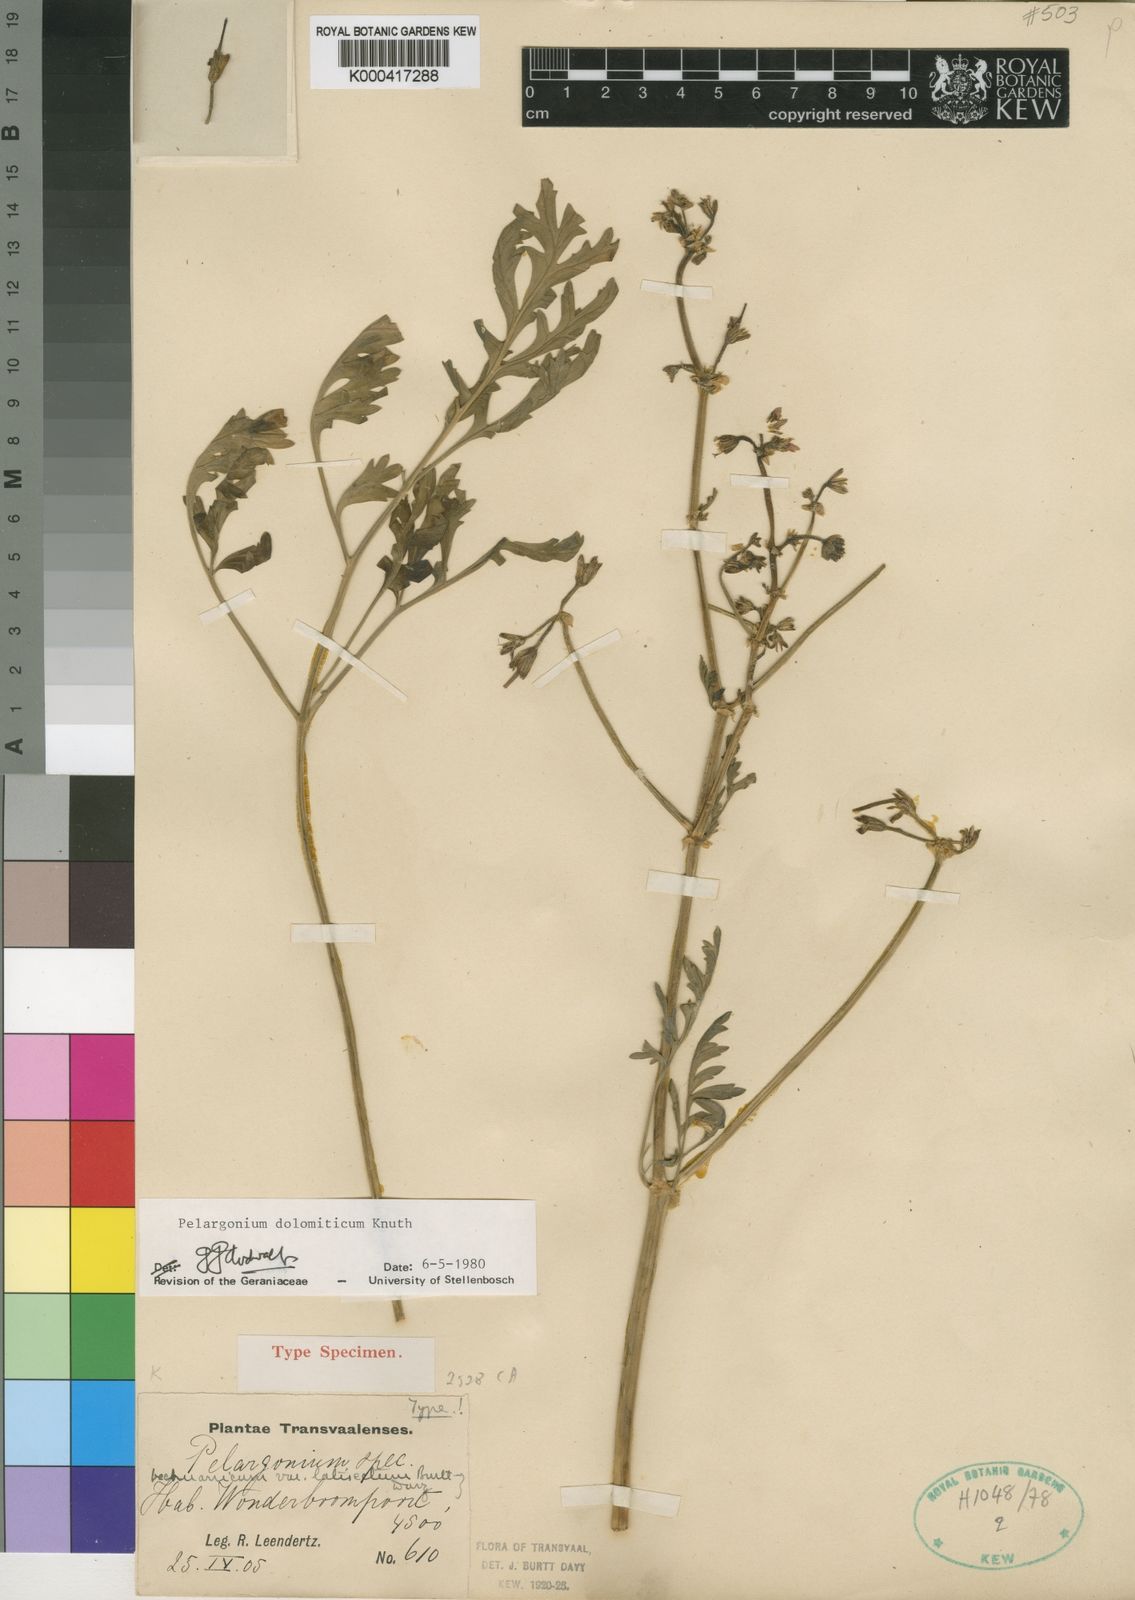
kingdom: Plantae
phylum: Tracheophyta
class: Magnoliopsida
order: Geraniales
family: Geraniaceae
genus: Pelargonium
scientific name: Pelargonium dolomiticum
